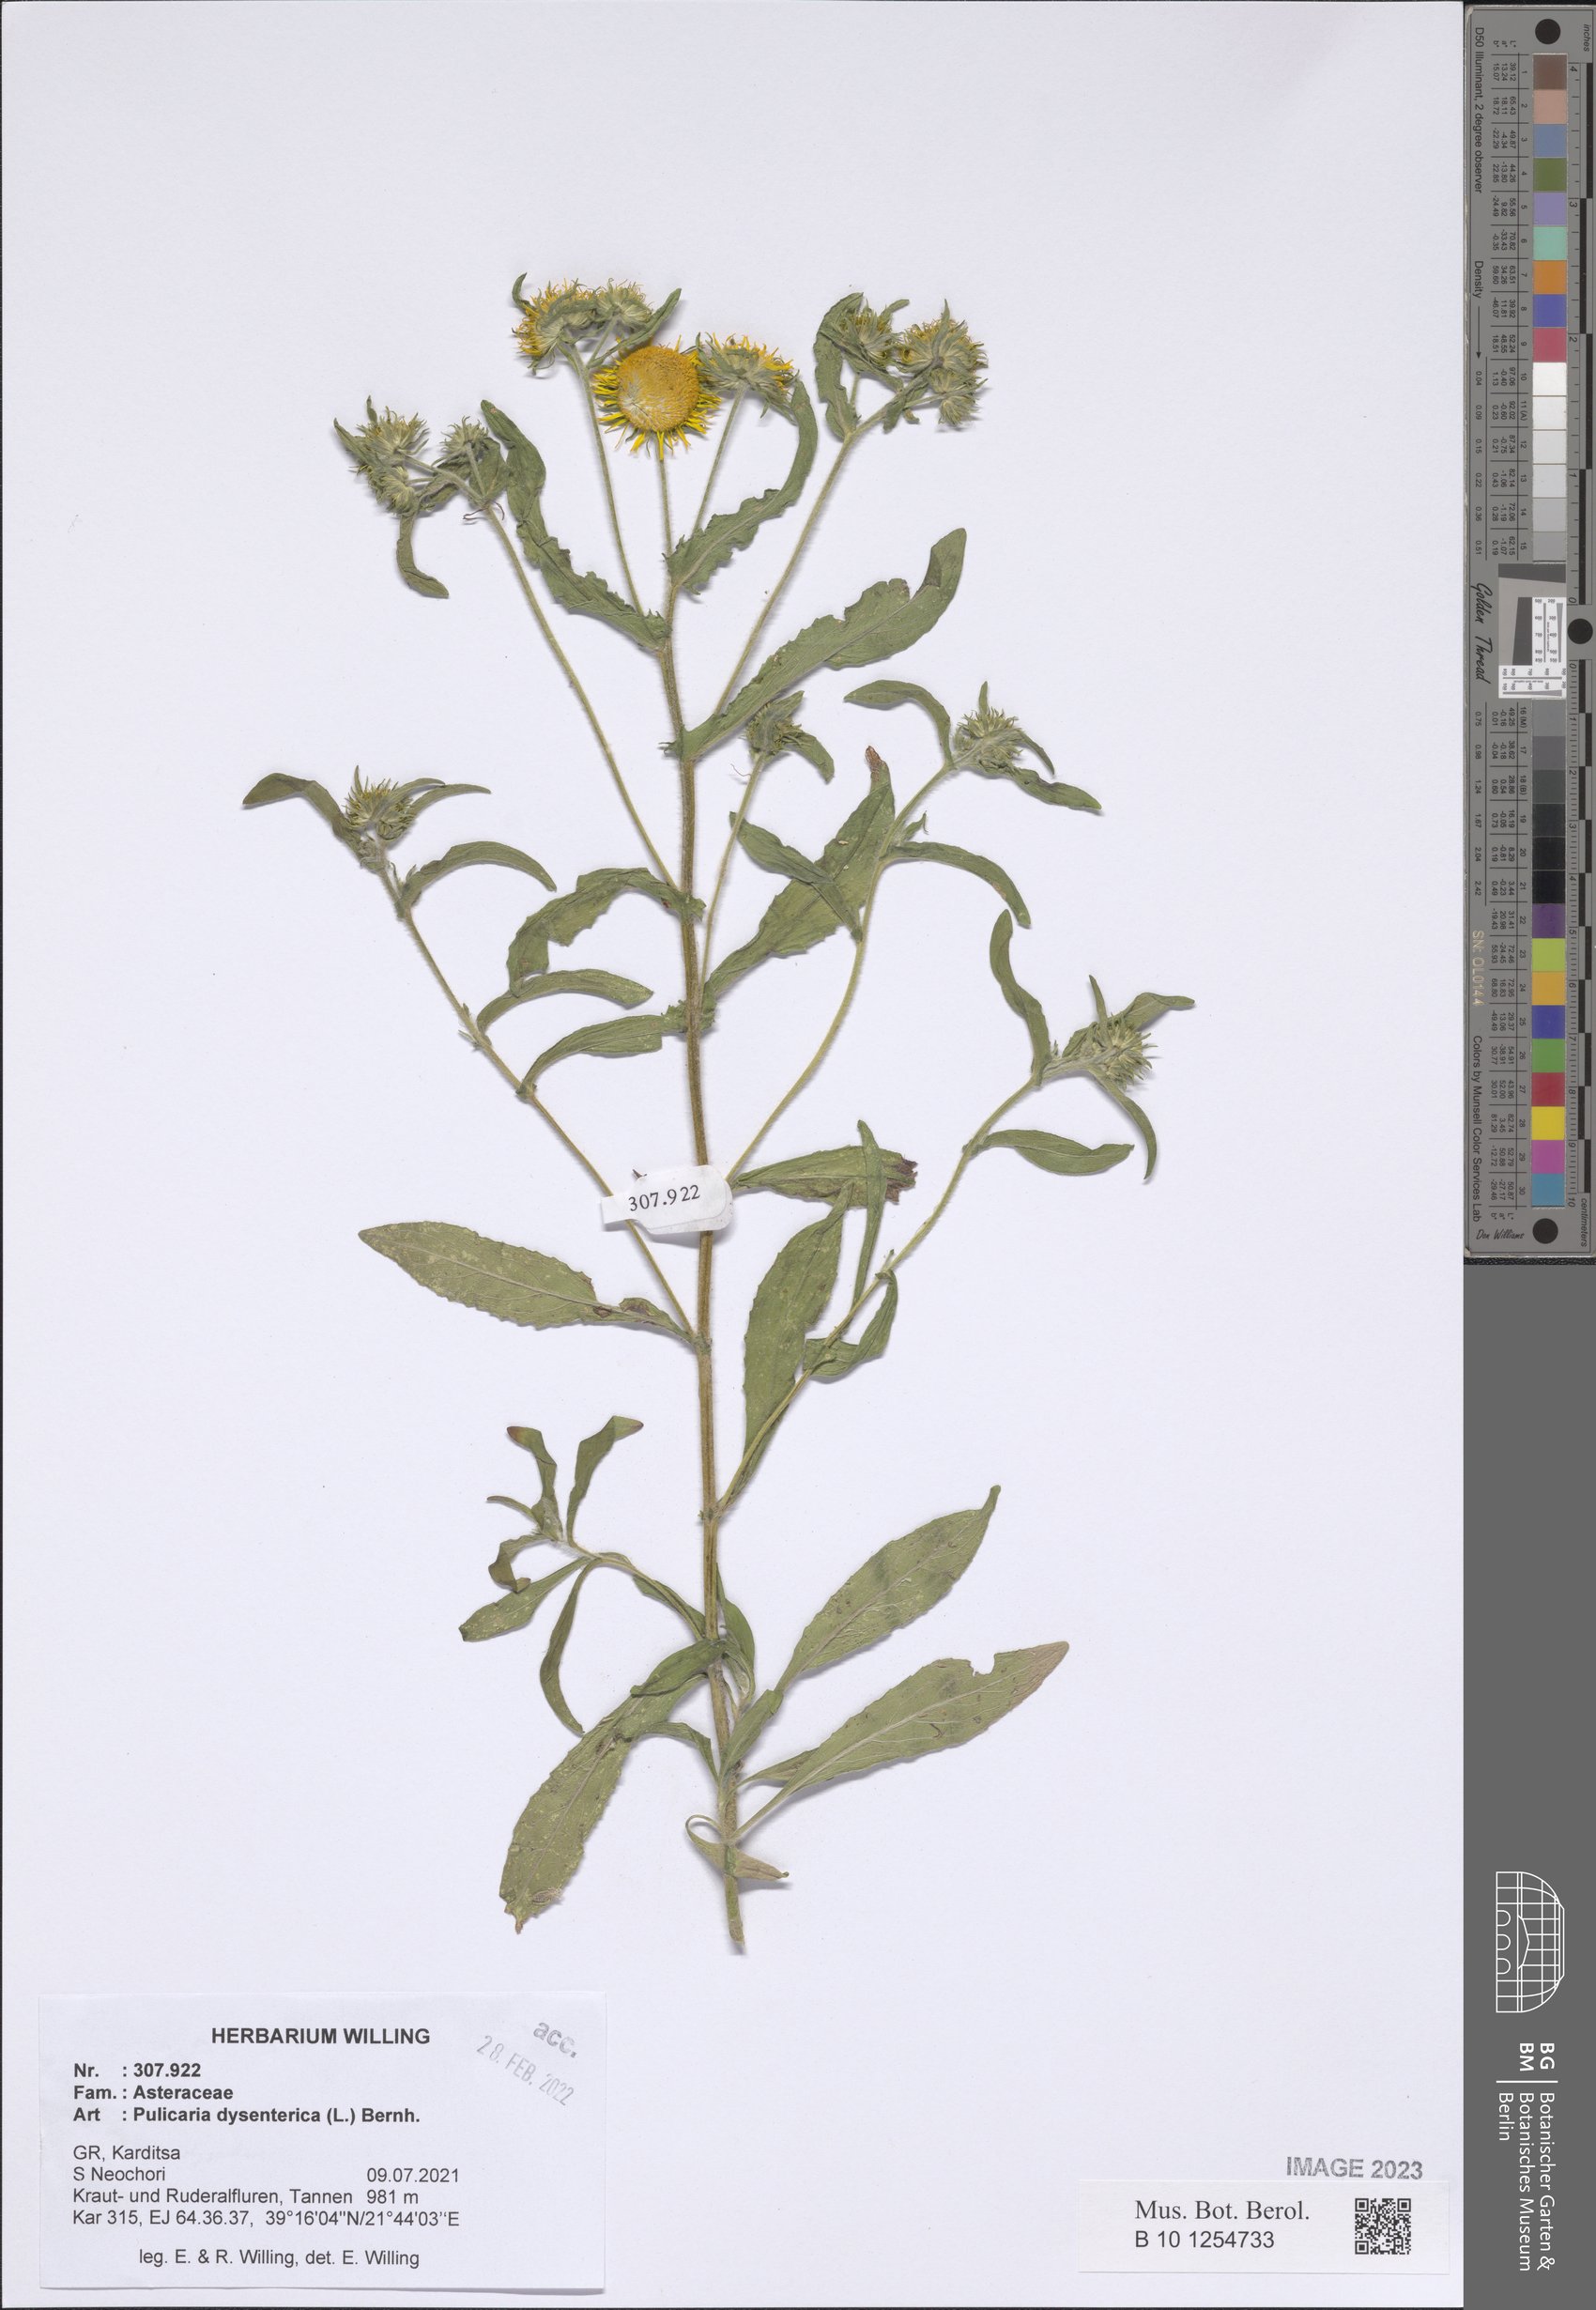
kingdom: Plantae
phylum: Tracheophyta
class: Magnoliopsida
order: Asterales
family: Asteraceae
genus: Pulicaria
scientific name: Pulicaria dysenterica
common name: Common fleabane
